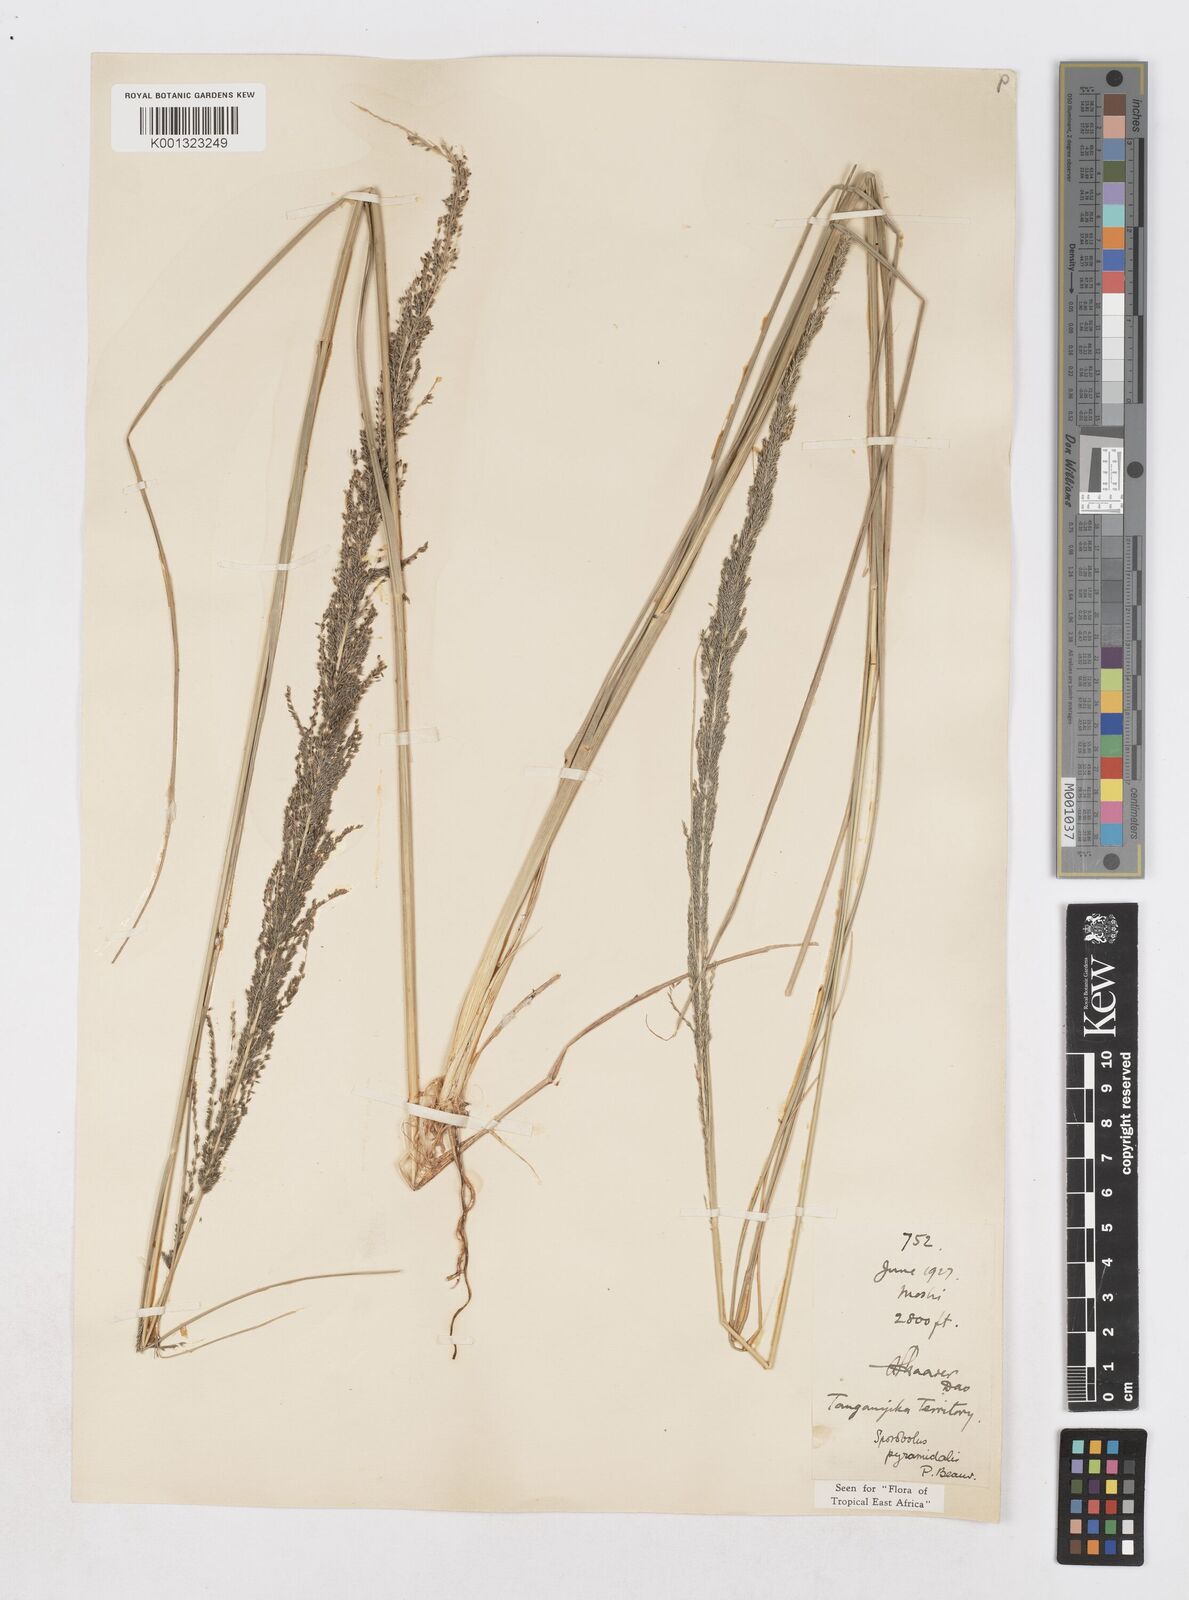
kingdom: Plantae
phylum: Tracheophyta
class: Liliopsida
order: Poales
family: Poaceae
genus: Sporobolus
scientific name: Sporobolus pyramidalis
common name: West indian dropseed
